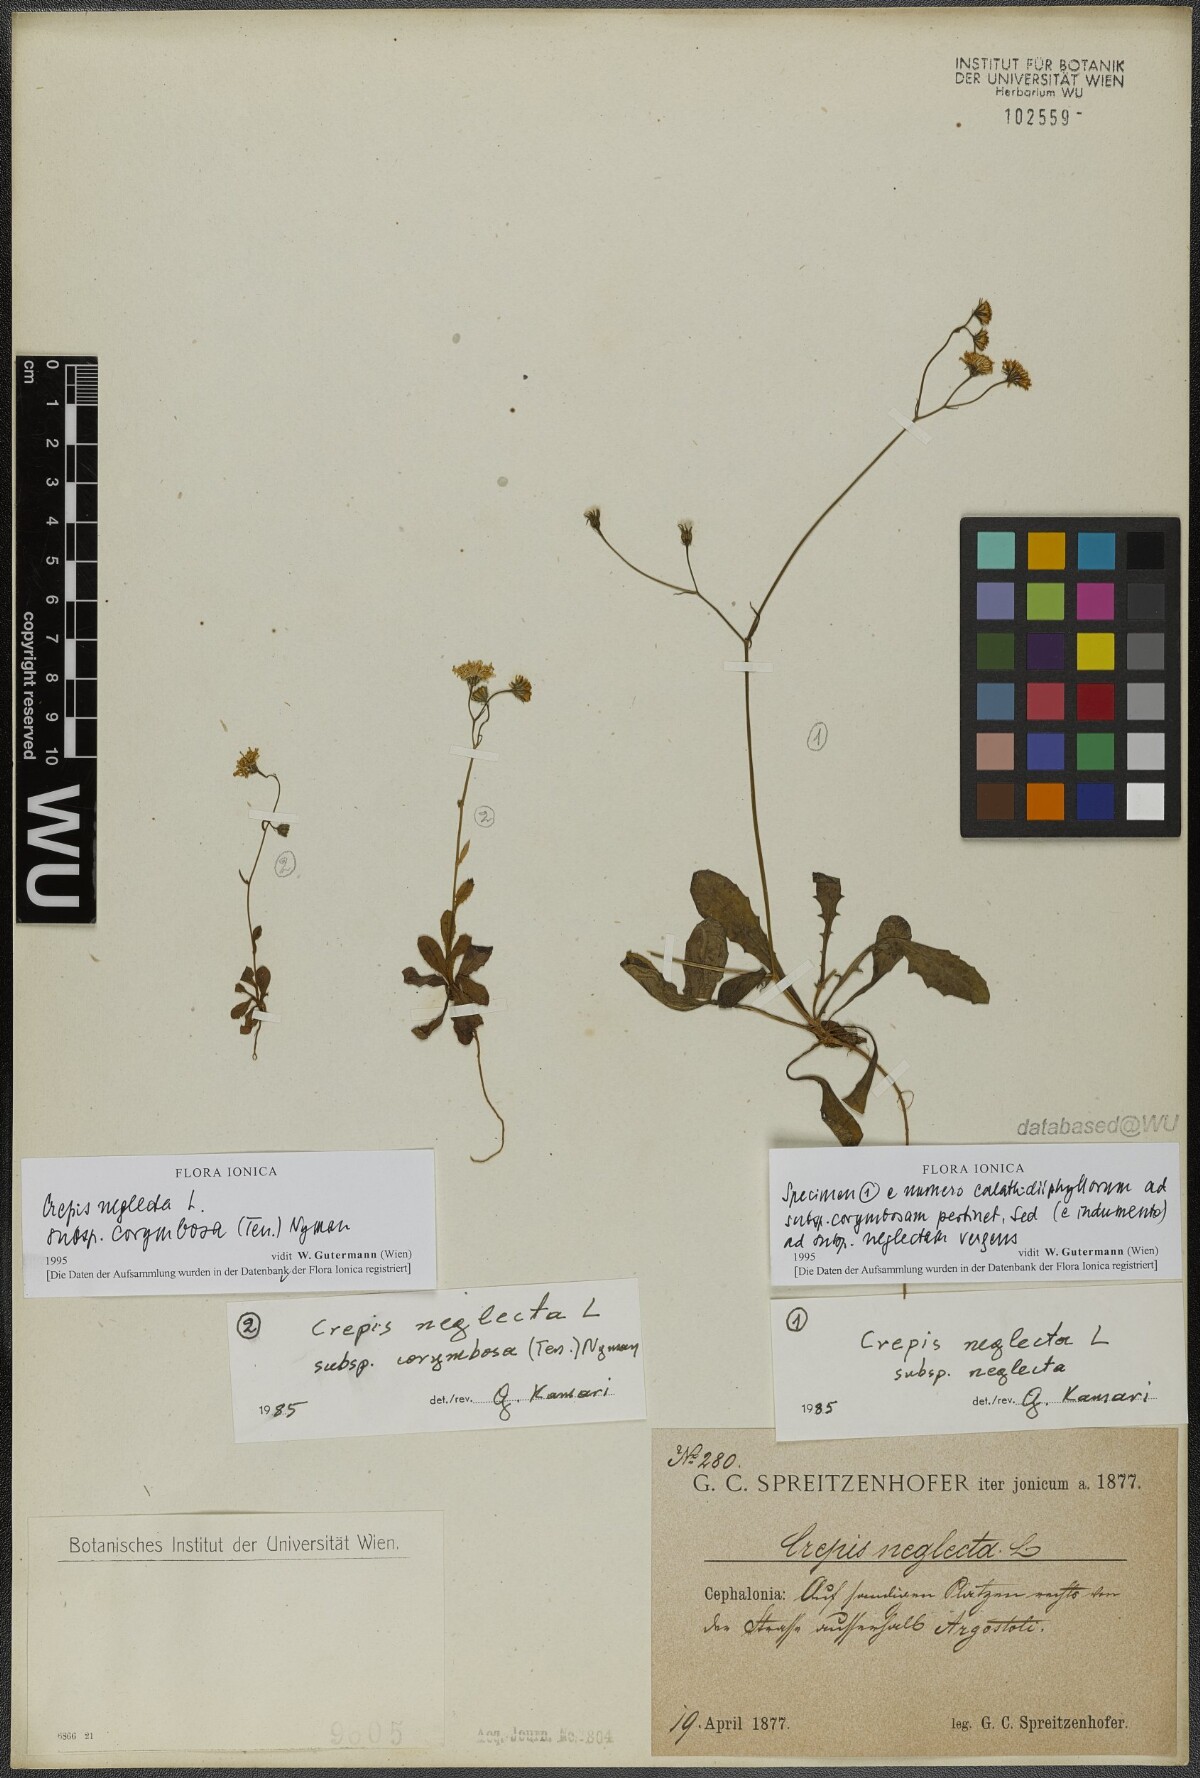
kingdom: Plantae
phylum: Tracheophyta
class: Magnoliopsida
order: Asterales
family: Asteraceae
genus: Crepis
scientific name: Crepis neglecta
